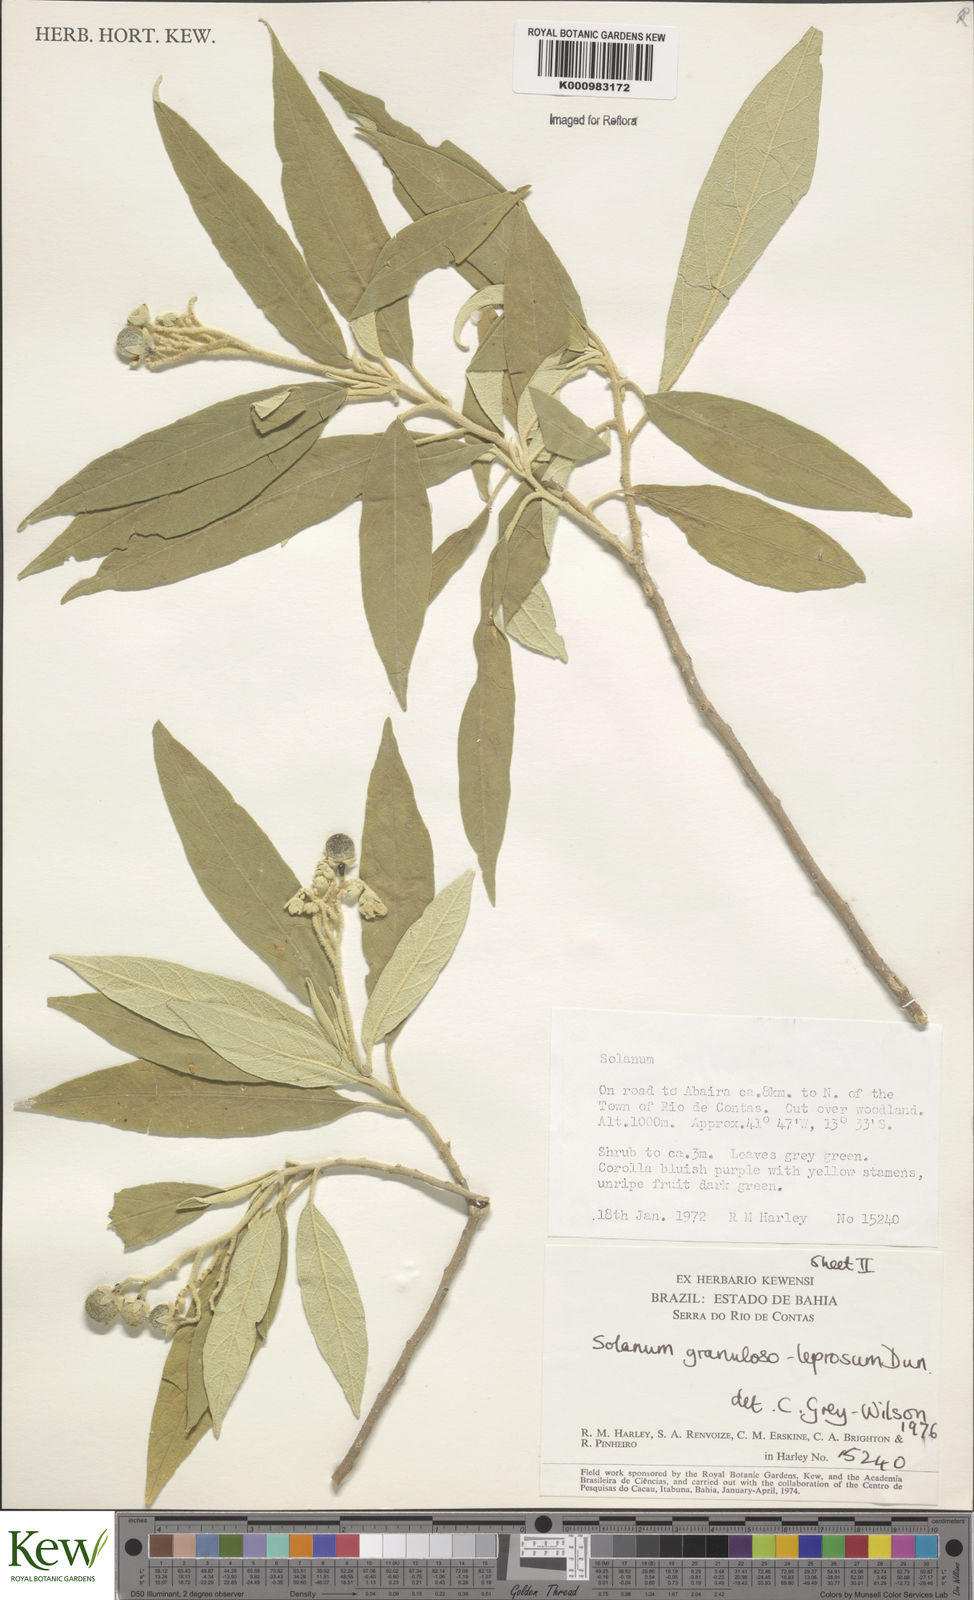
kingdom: Plantae
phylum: Tracheophyta
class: Magnoliopsida
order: Solanales
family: Solanaceae
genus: Solanum
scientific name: Solanum granulosoleprosum
